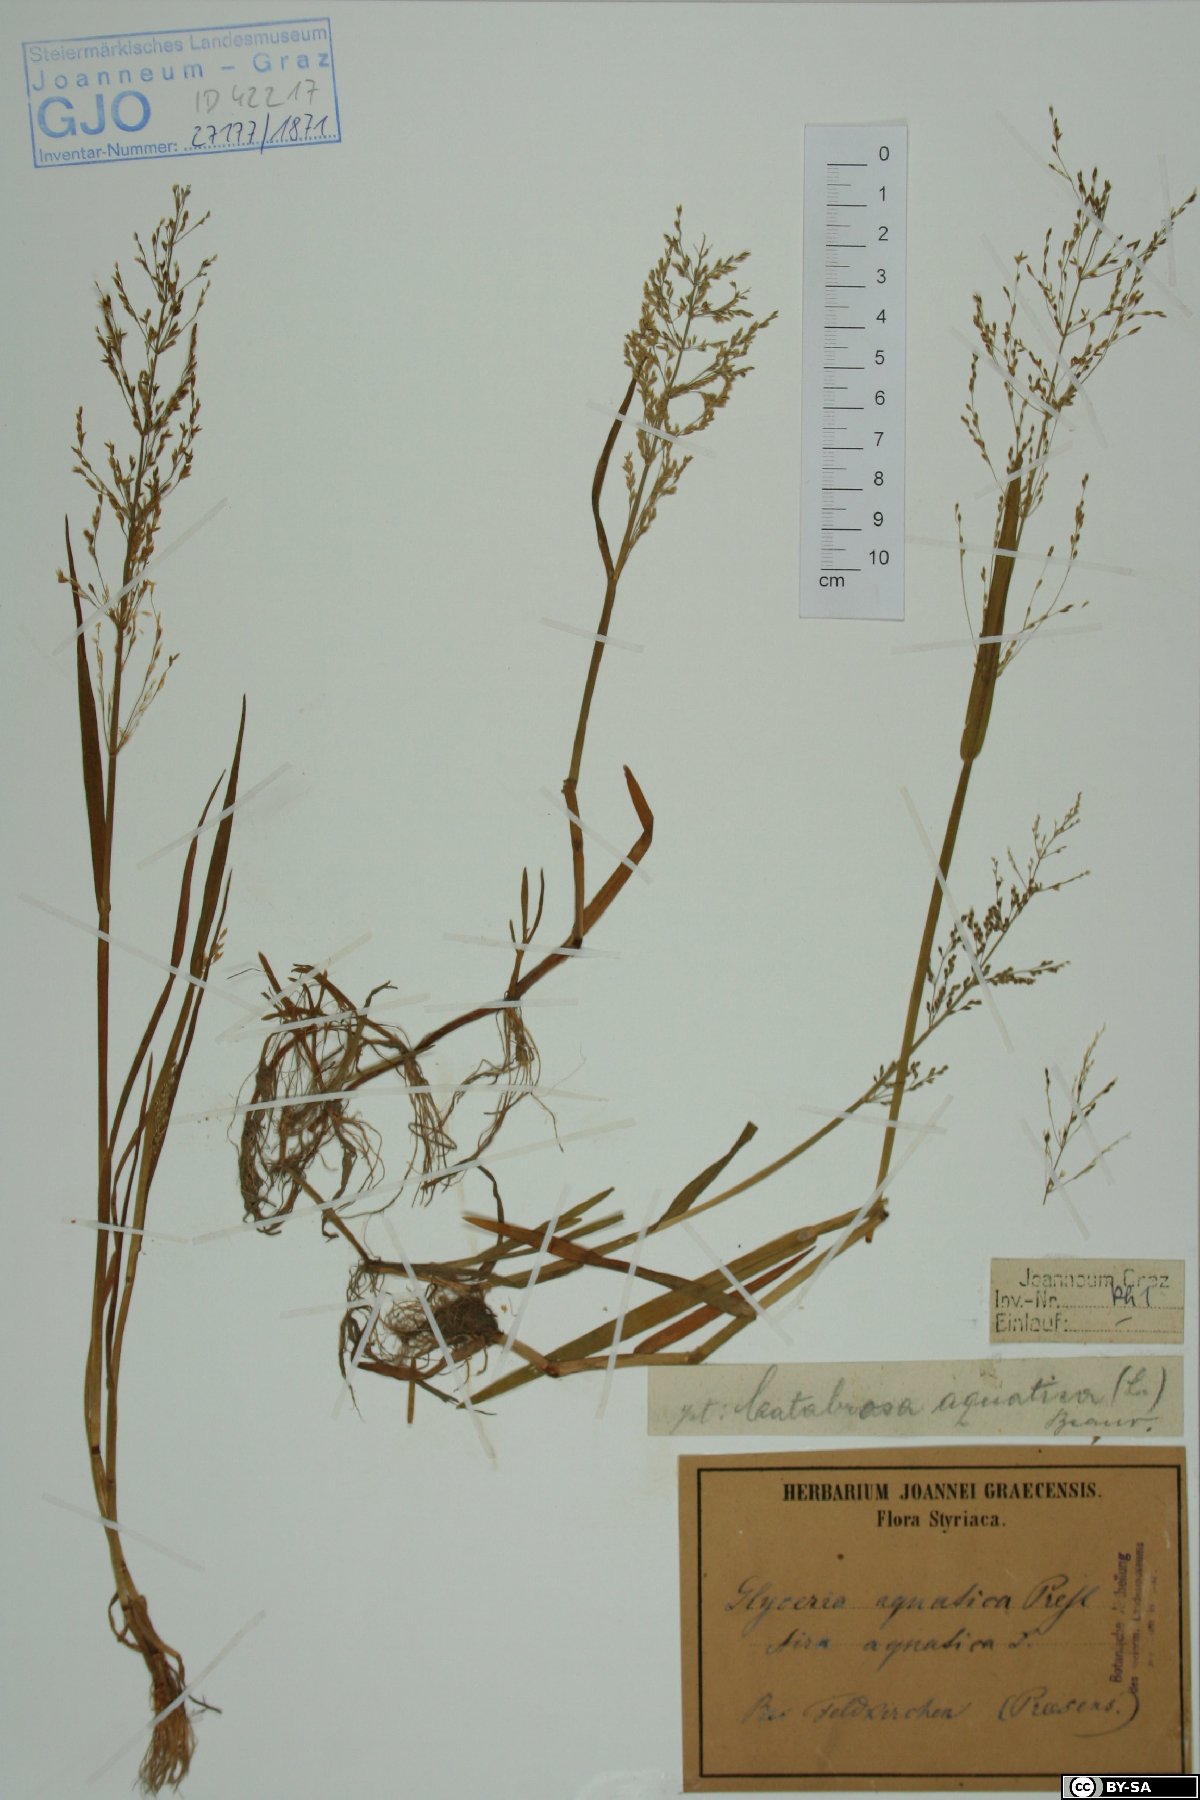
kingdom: Plantae
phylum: Tracheophyta
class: Liliopsida
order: Poales
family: Poaceae
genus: Catabrosa
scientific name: Catabrosa aquatica
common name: Whorl-grass
